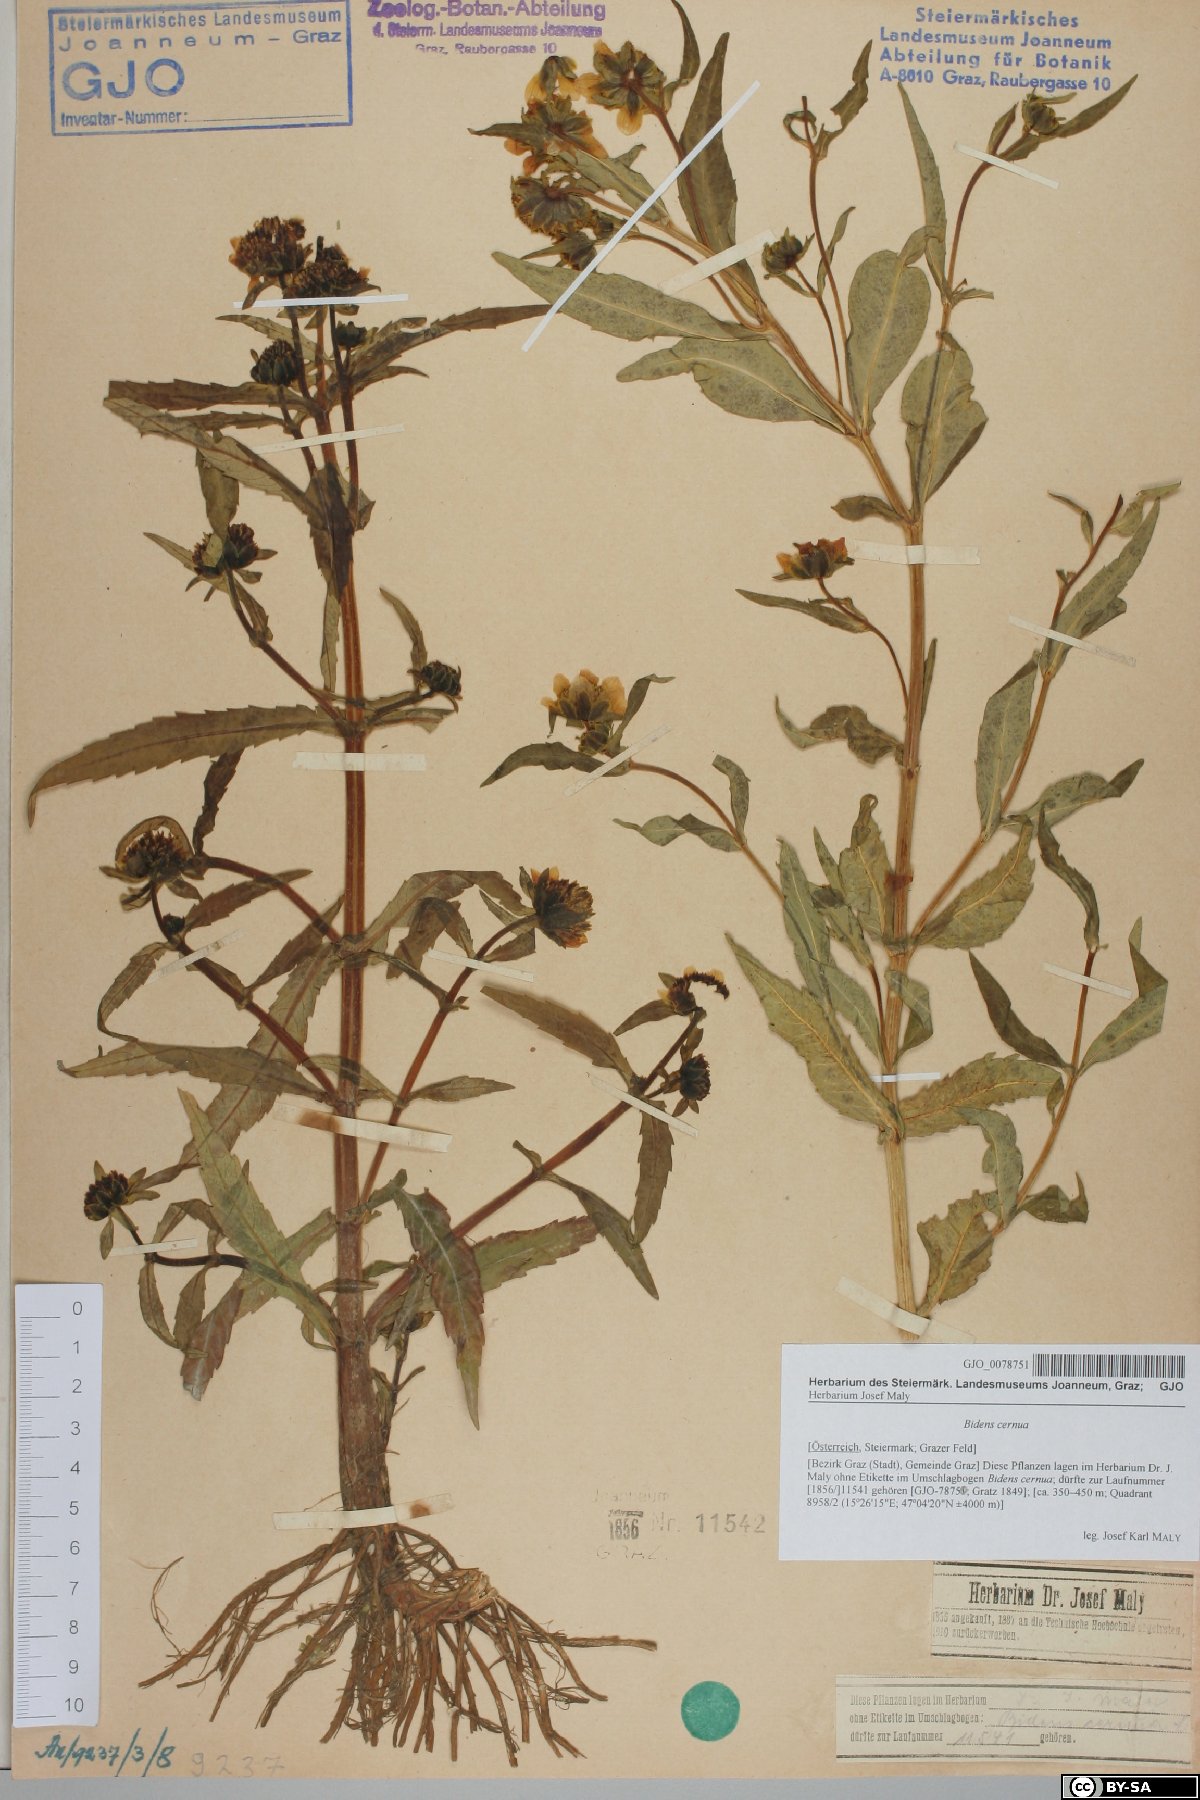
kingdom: Plantae
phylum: Tracheophyta
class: Magnoliopsida
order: Asterales
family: Asteraceae
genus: Bidens
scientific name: Bidens cernua
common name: Nodding bur-marigold
